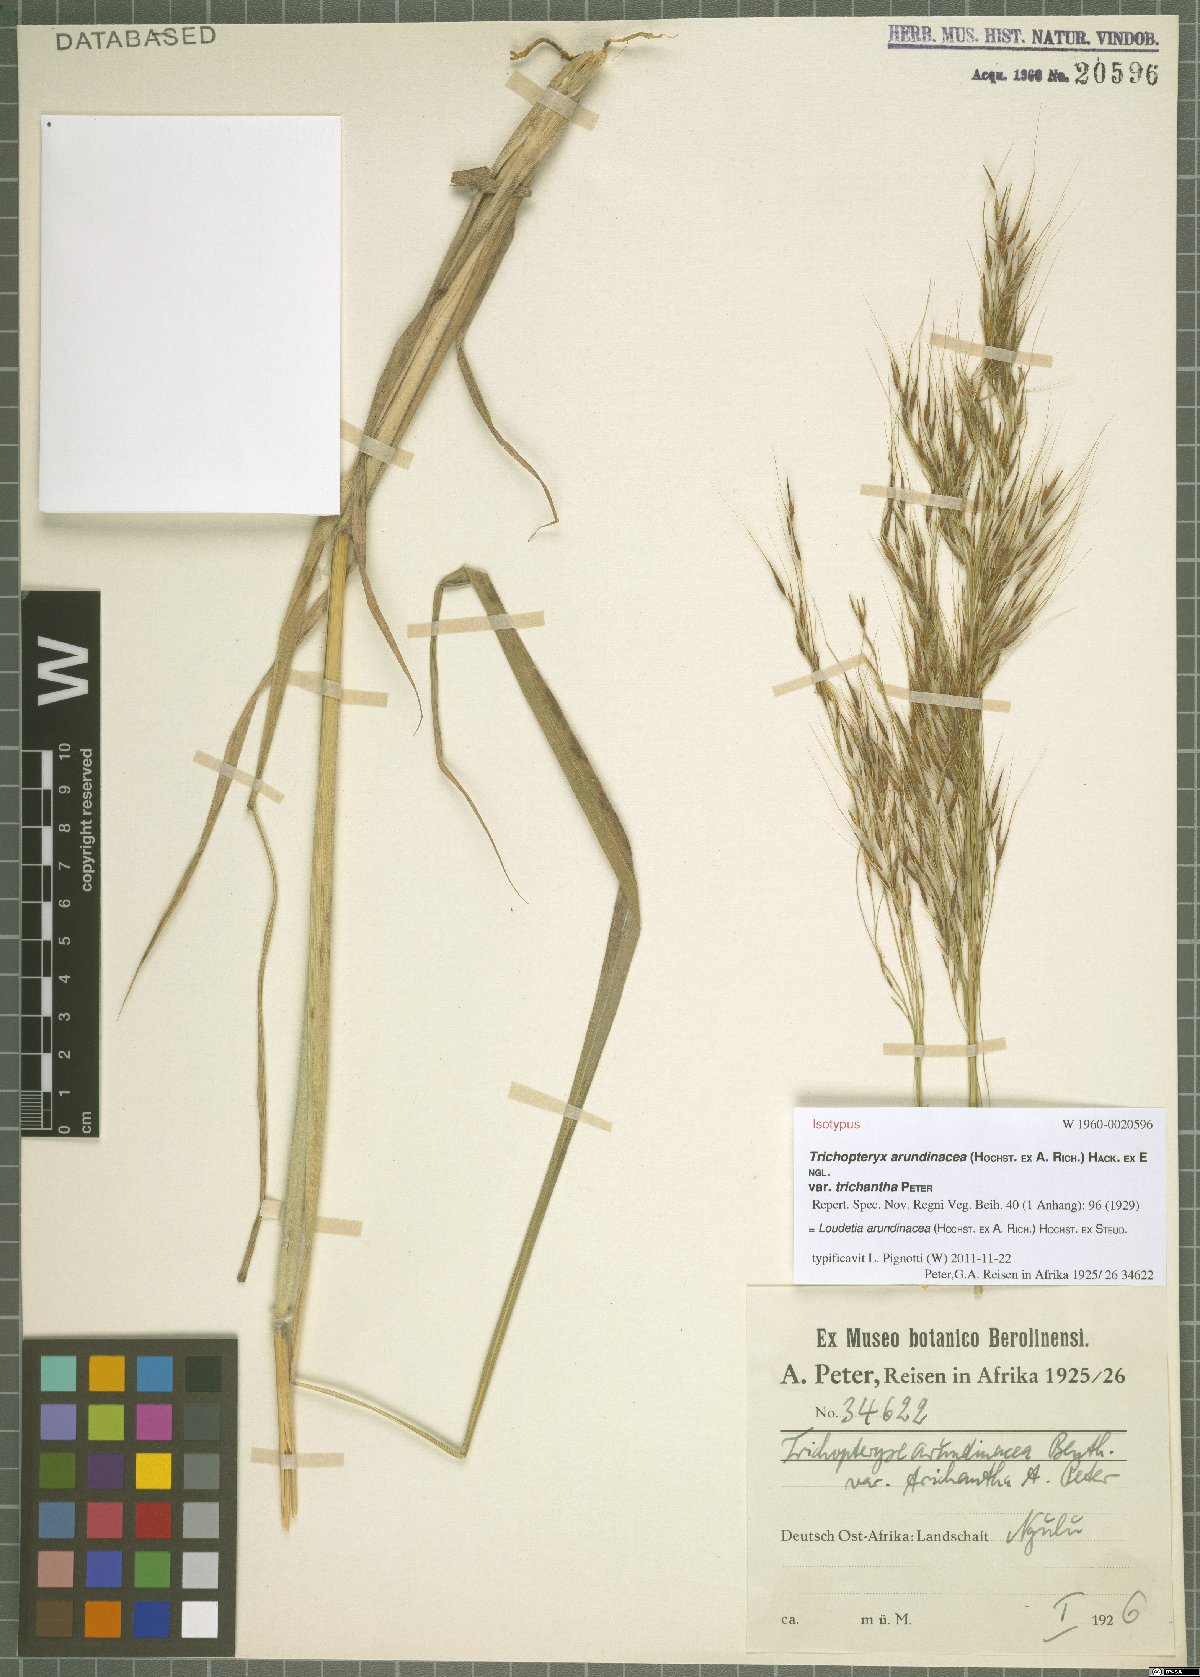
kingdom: Plantae
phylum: Tracheophyta
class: Liliopsida
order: Poales
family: Poaceae
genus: Loudetia
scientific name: Loudetia arundinacea
